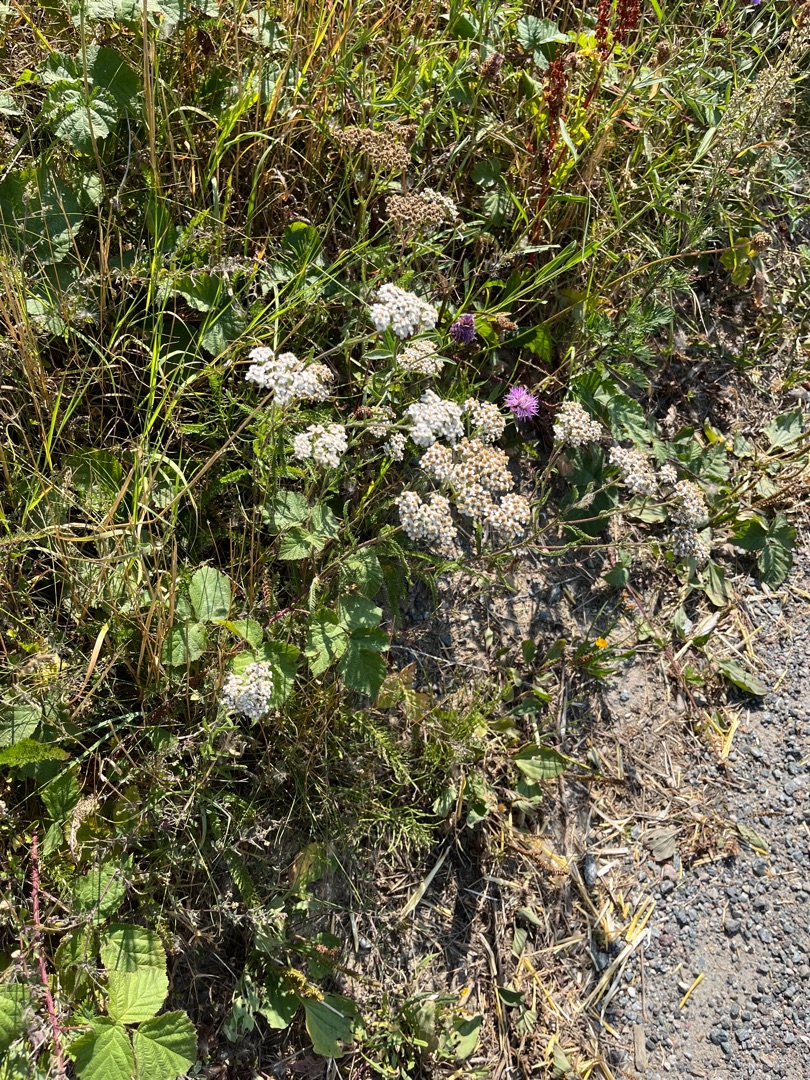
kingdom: Plantae
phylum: Tracheophyta
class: Magnoliopsida
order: Asterales
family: Asteraceae
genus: Achillea
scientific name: Achillea millefolium
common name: Almindelig røllike
